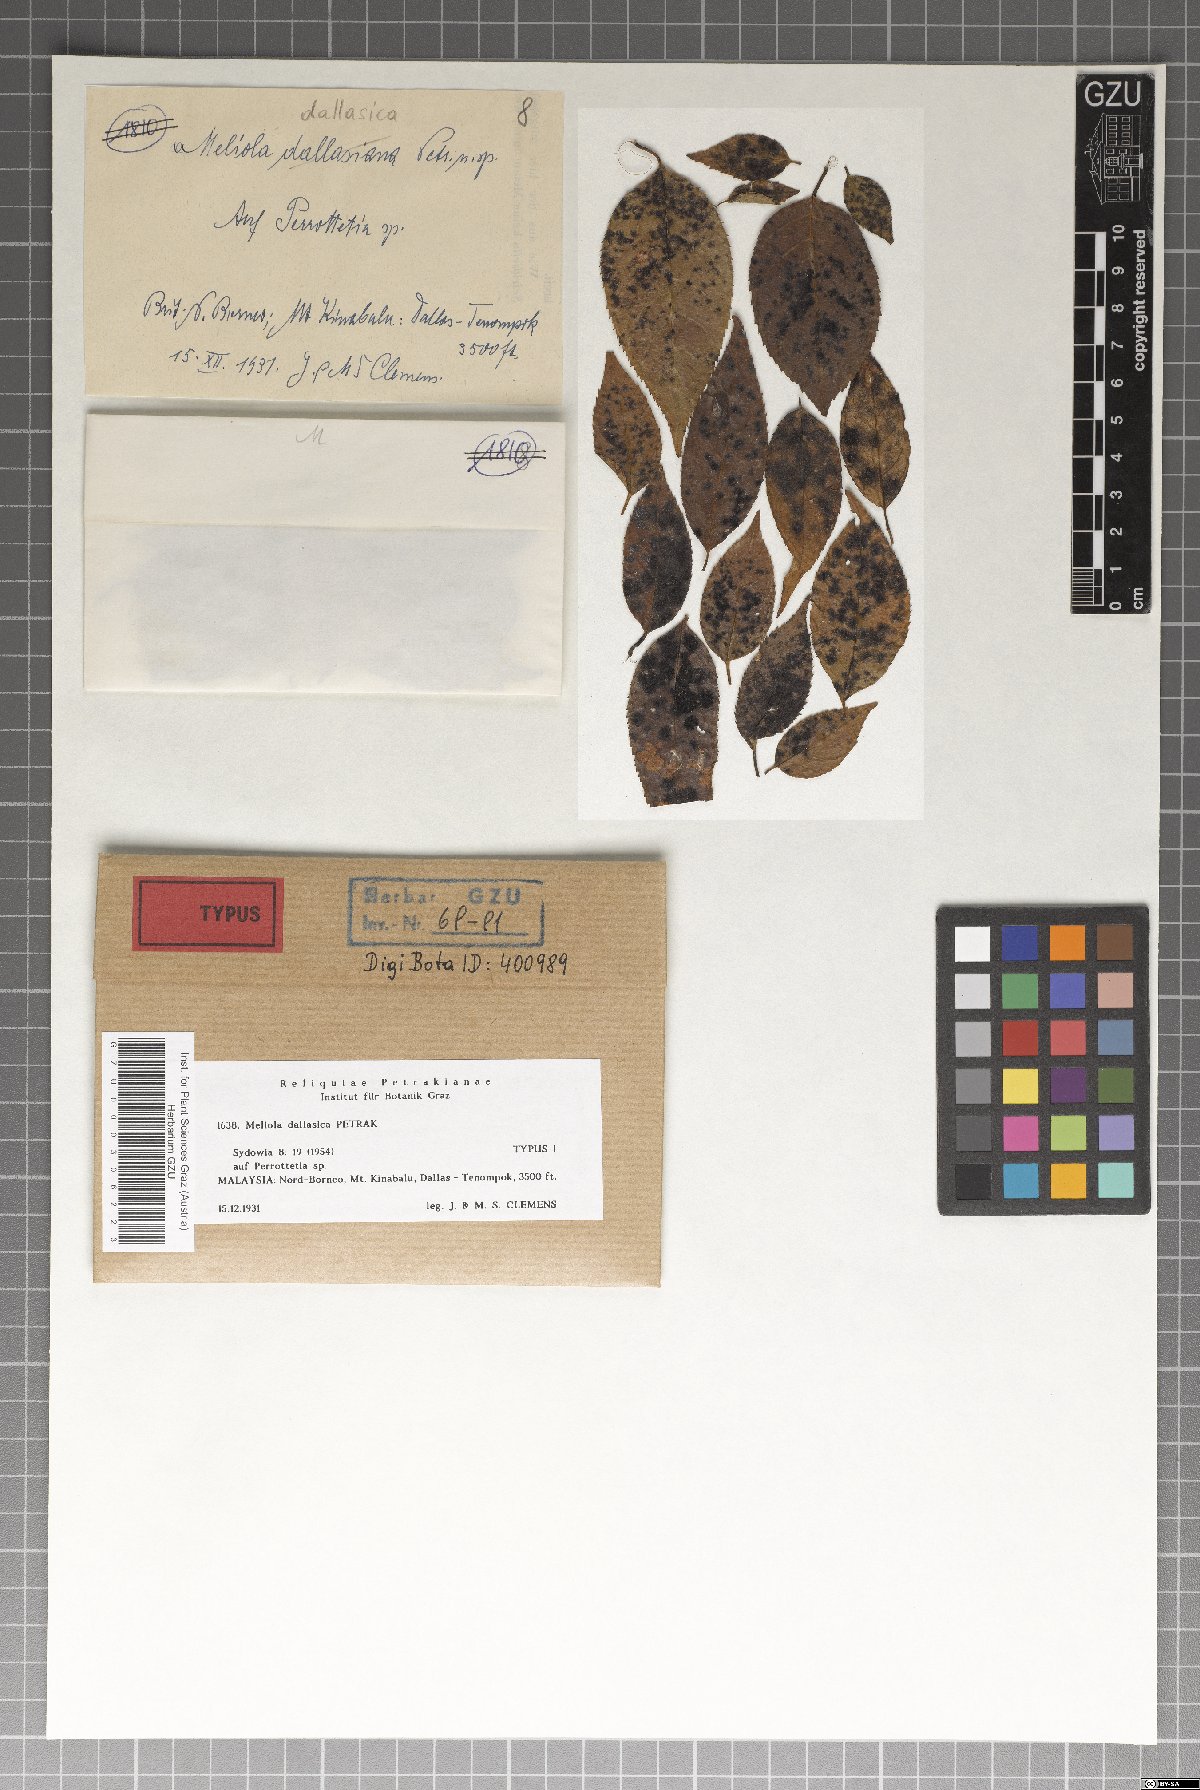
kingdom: Fungi
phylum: Ascomycota
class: Sordariomycetes
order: Meliolales
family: Meliolaceae
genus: Meliola
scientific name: Meliola dallasica
